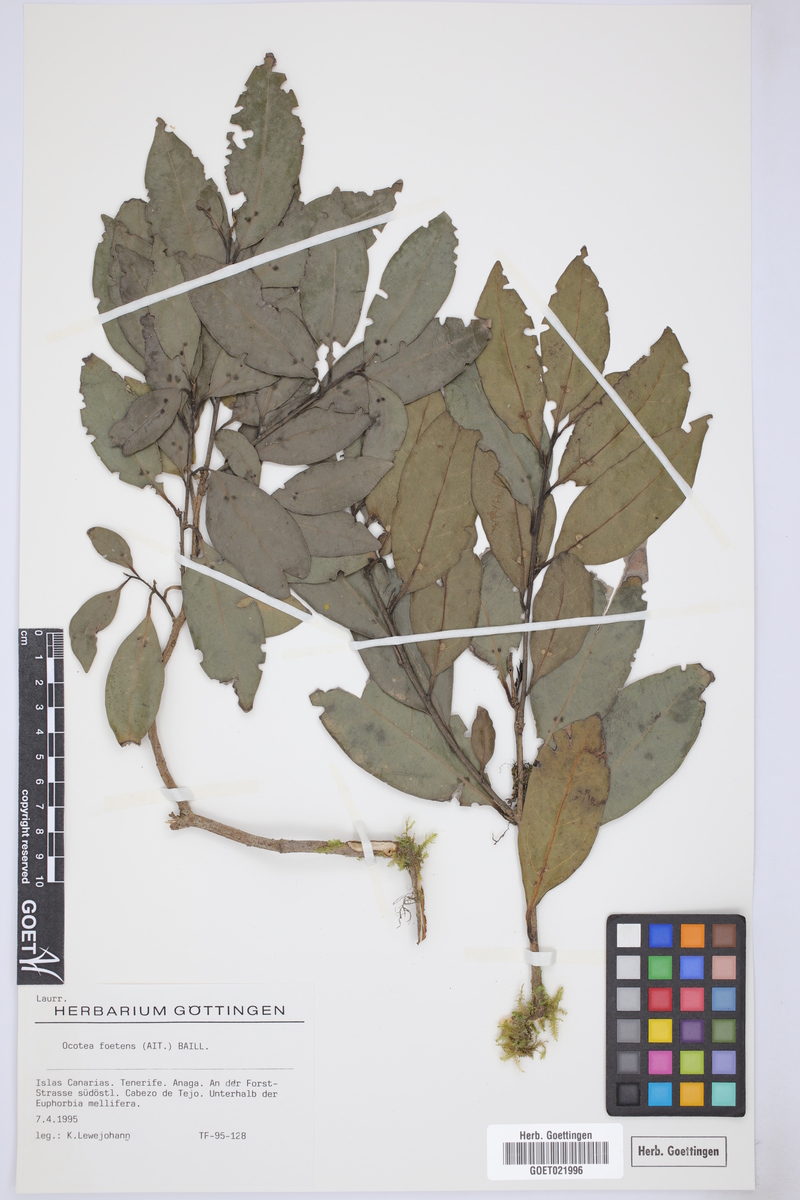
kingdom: Plantae
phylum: Tracheophyta
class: Magnoliopsida
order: Laurales
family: Lauraceae
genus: Mespilodaphne
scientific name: Mespilodaphne foetens
